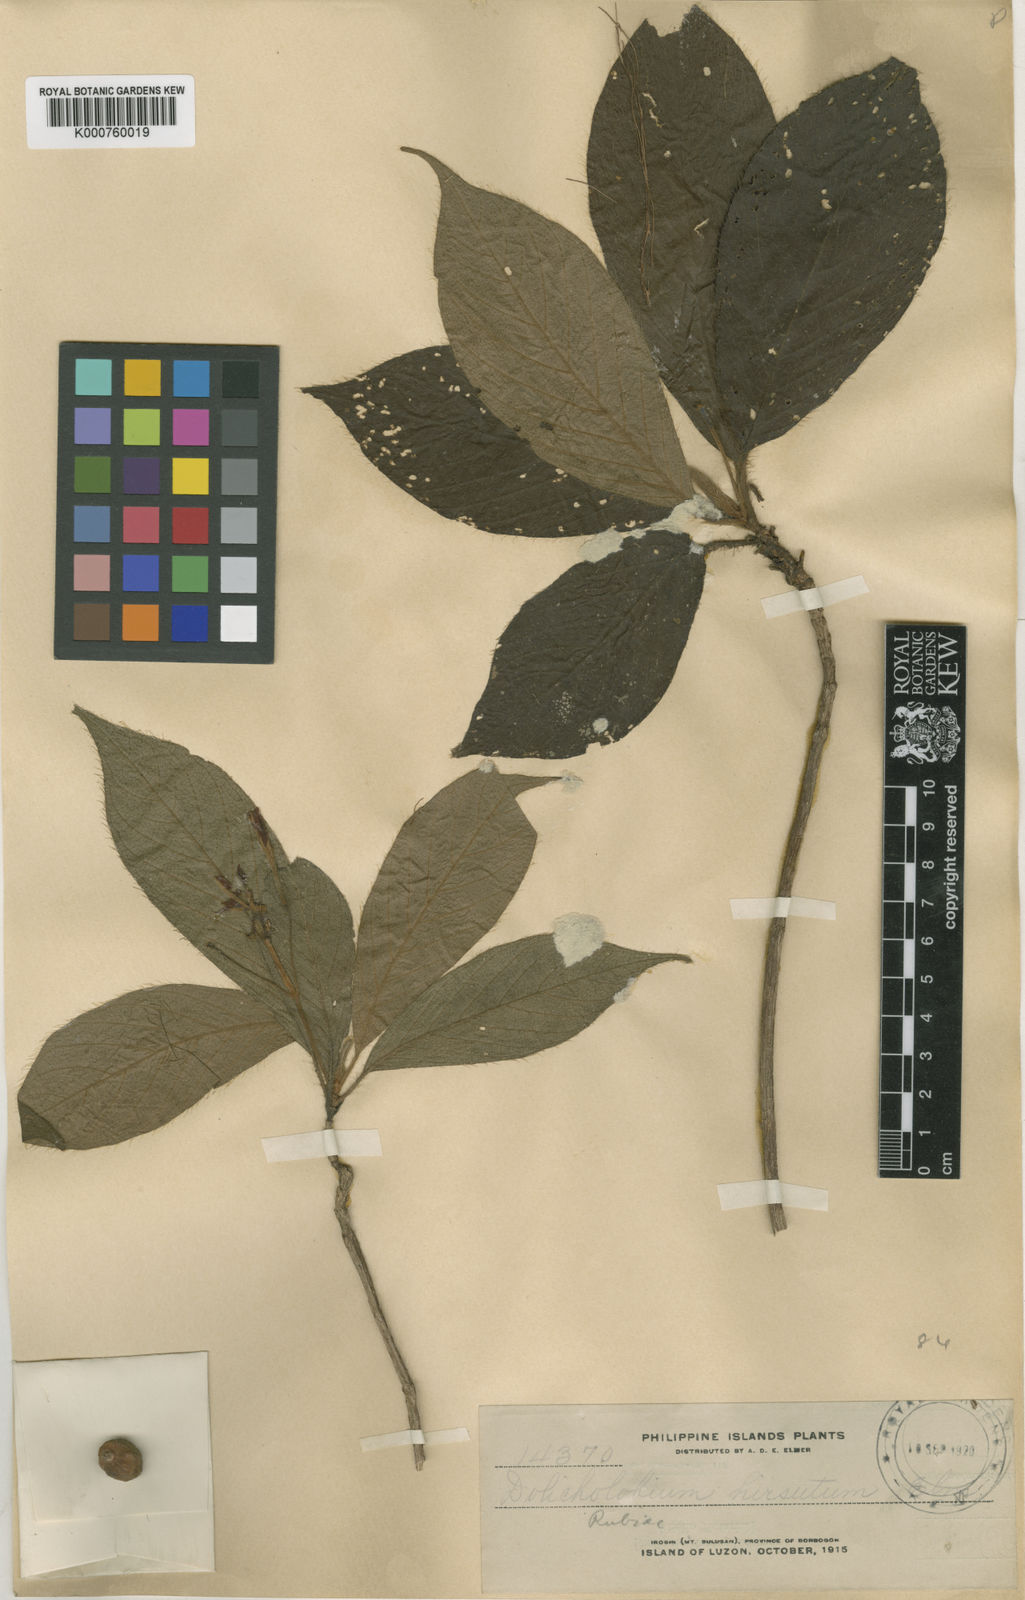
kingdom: Plantae
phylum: Tracheophyta
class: Magnoliopsida
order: Gentianales
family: Rubiaceae
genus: Dolicholobium
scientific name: Dolicholobium philippinense
